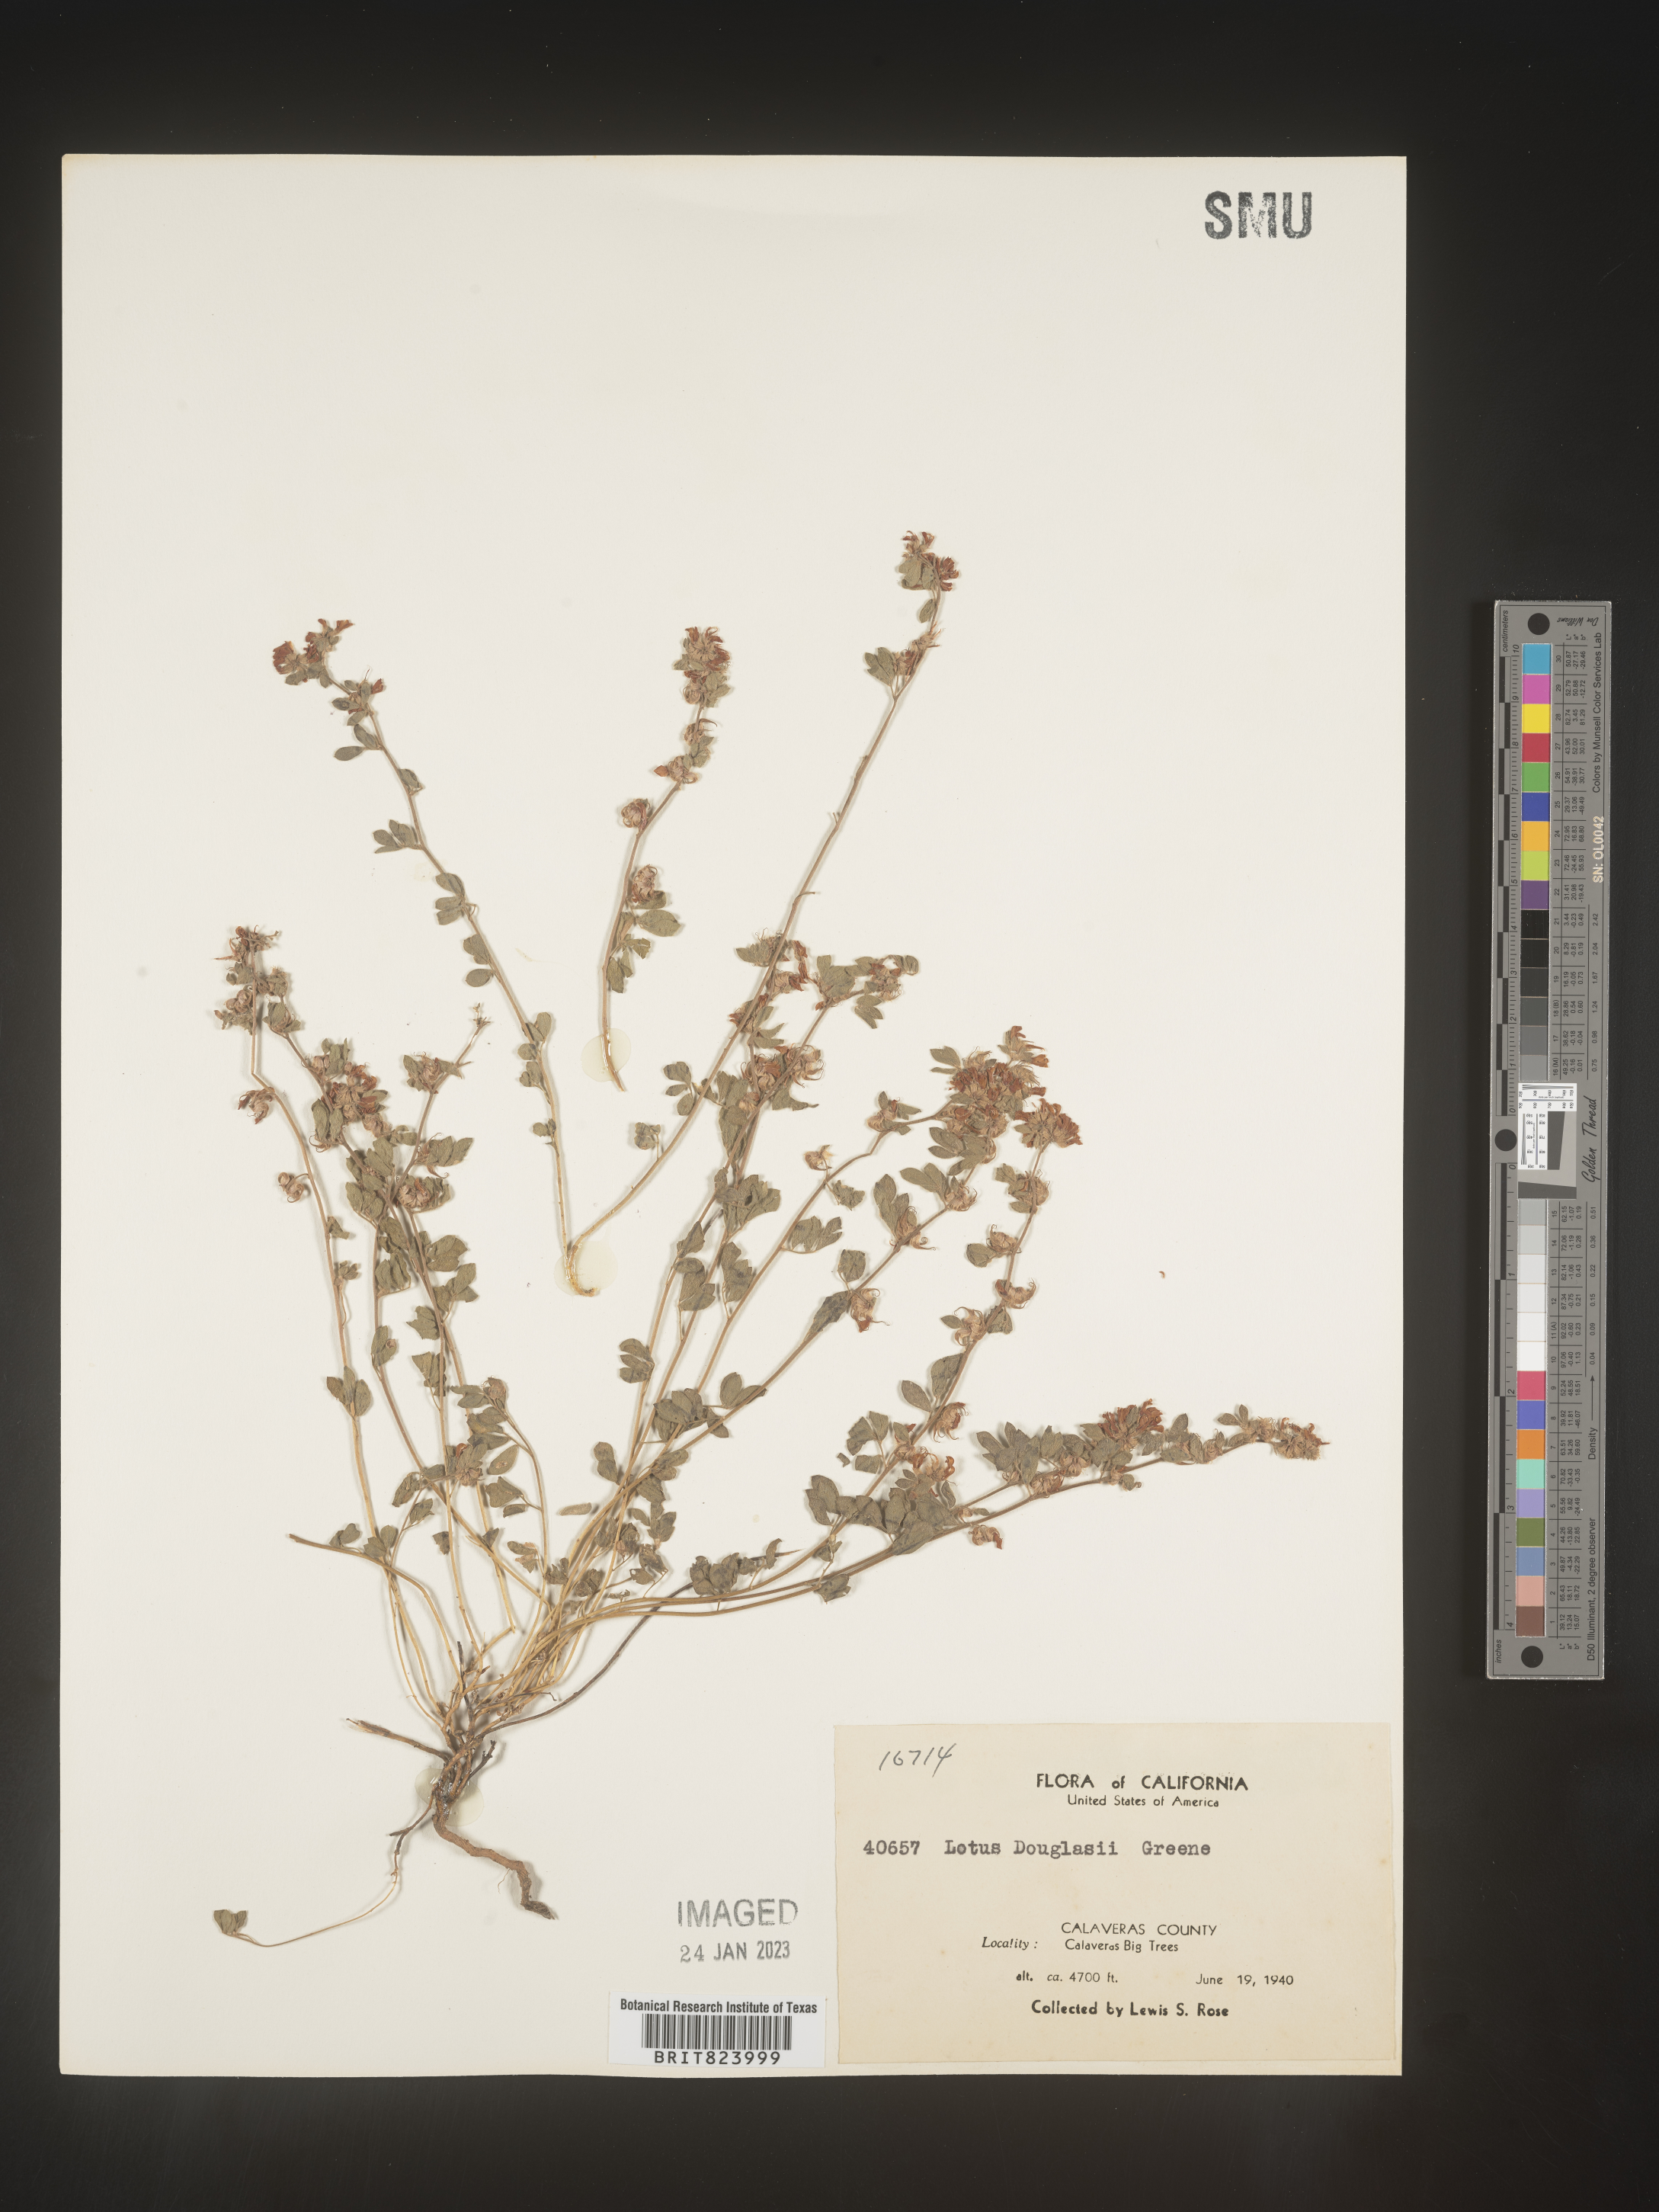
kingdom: Plantae
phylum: Tracheophyta
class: Magnoliopsida
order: Fabales
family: Fabaceae
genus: Lotus
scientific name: Lotus
